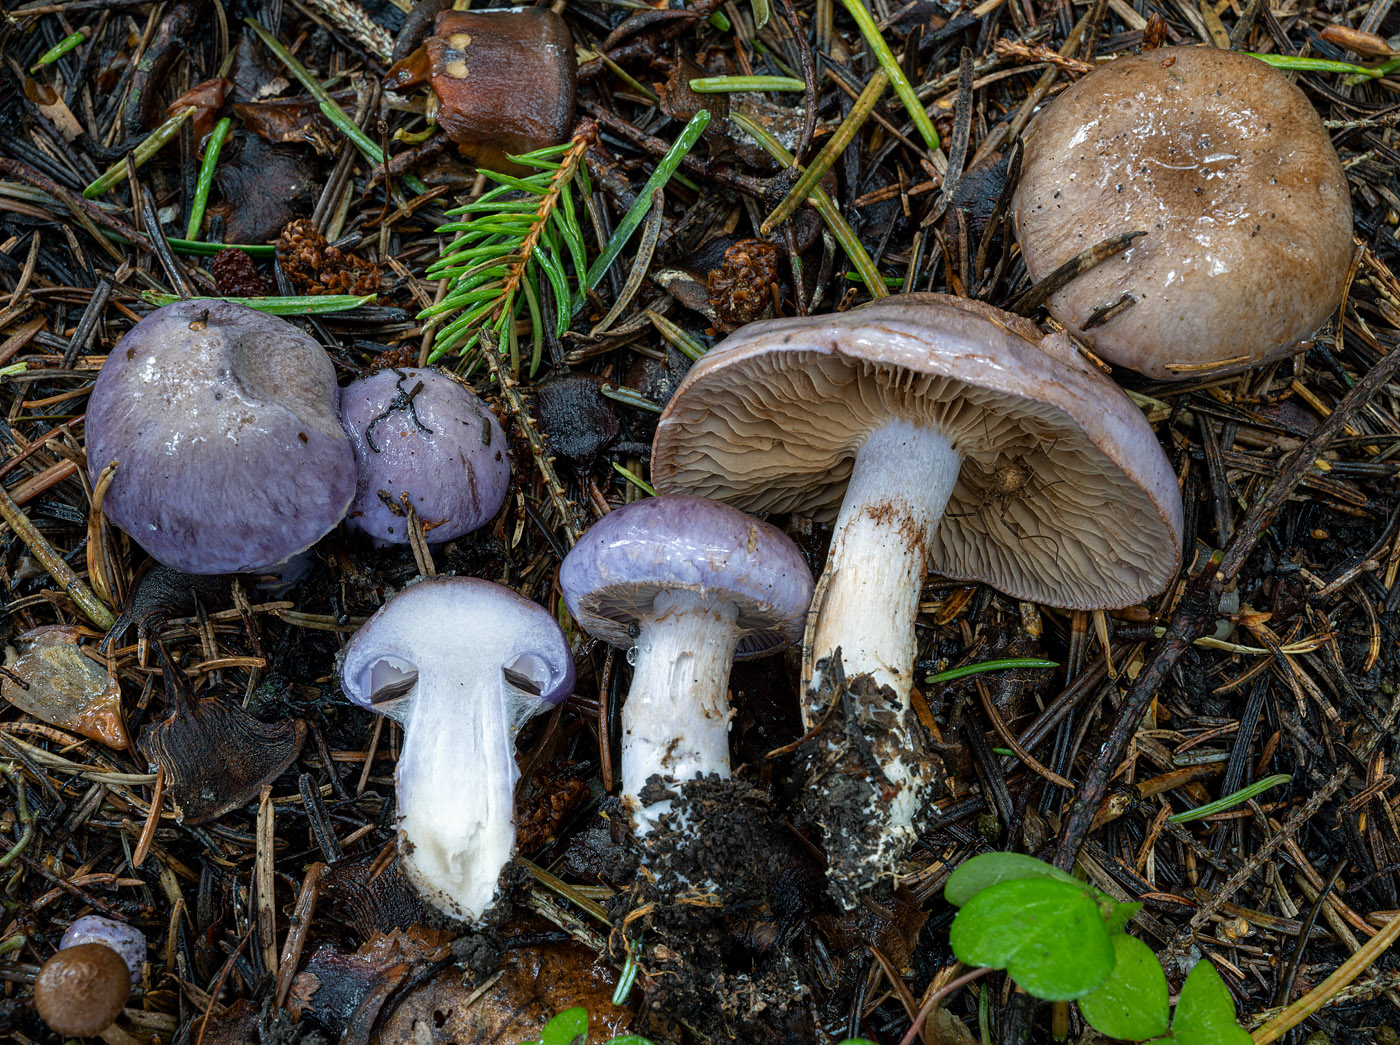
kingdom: Fungi
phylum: Basidiomycota
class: Agaricomycetes
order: Agaricales
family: Cortinariaceae
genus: Cortinarius
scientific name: Cortinarius variecolor
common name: violetagtig slørhat
